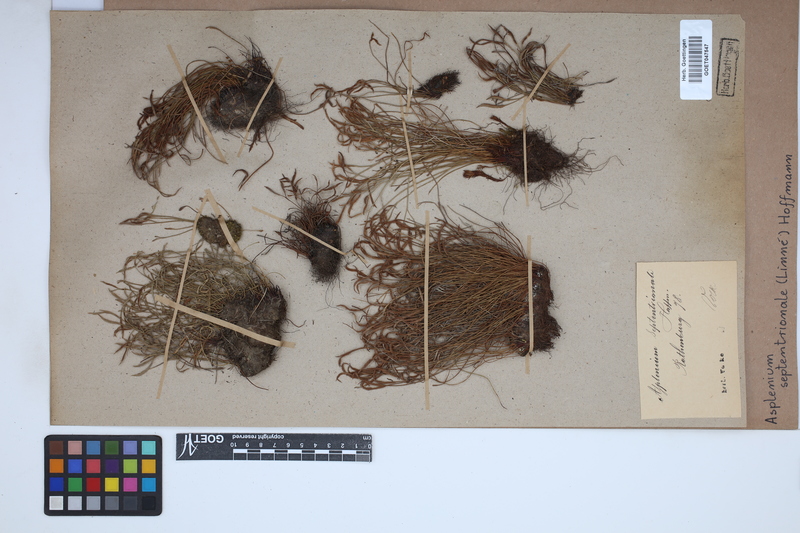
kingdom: Plantae
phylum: Tracheophyta
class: Polypodiopsida
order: Polypodiales
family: Aspleniaceae
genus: Asplenium
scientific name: Asplenium septentrionale
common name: Forked spleenwort
